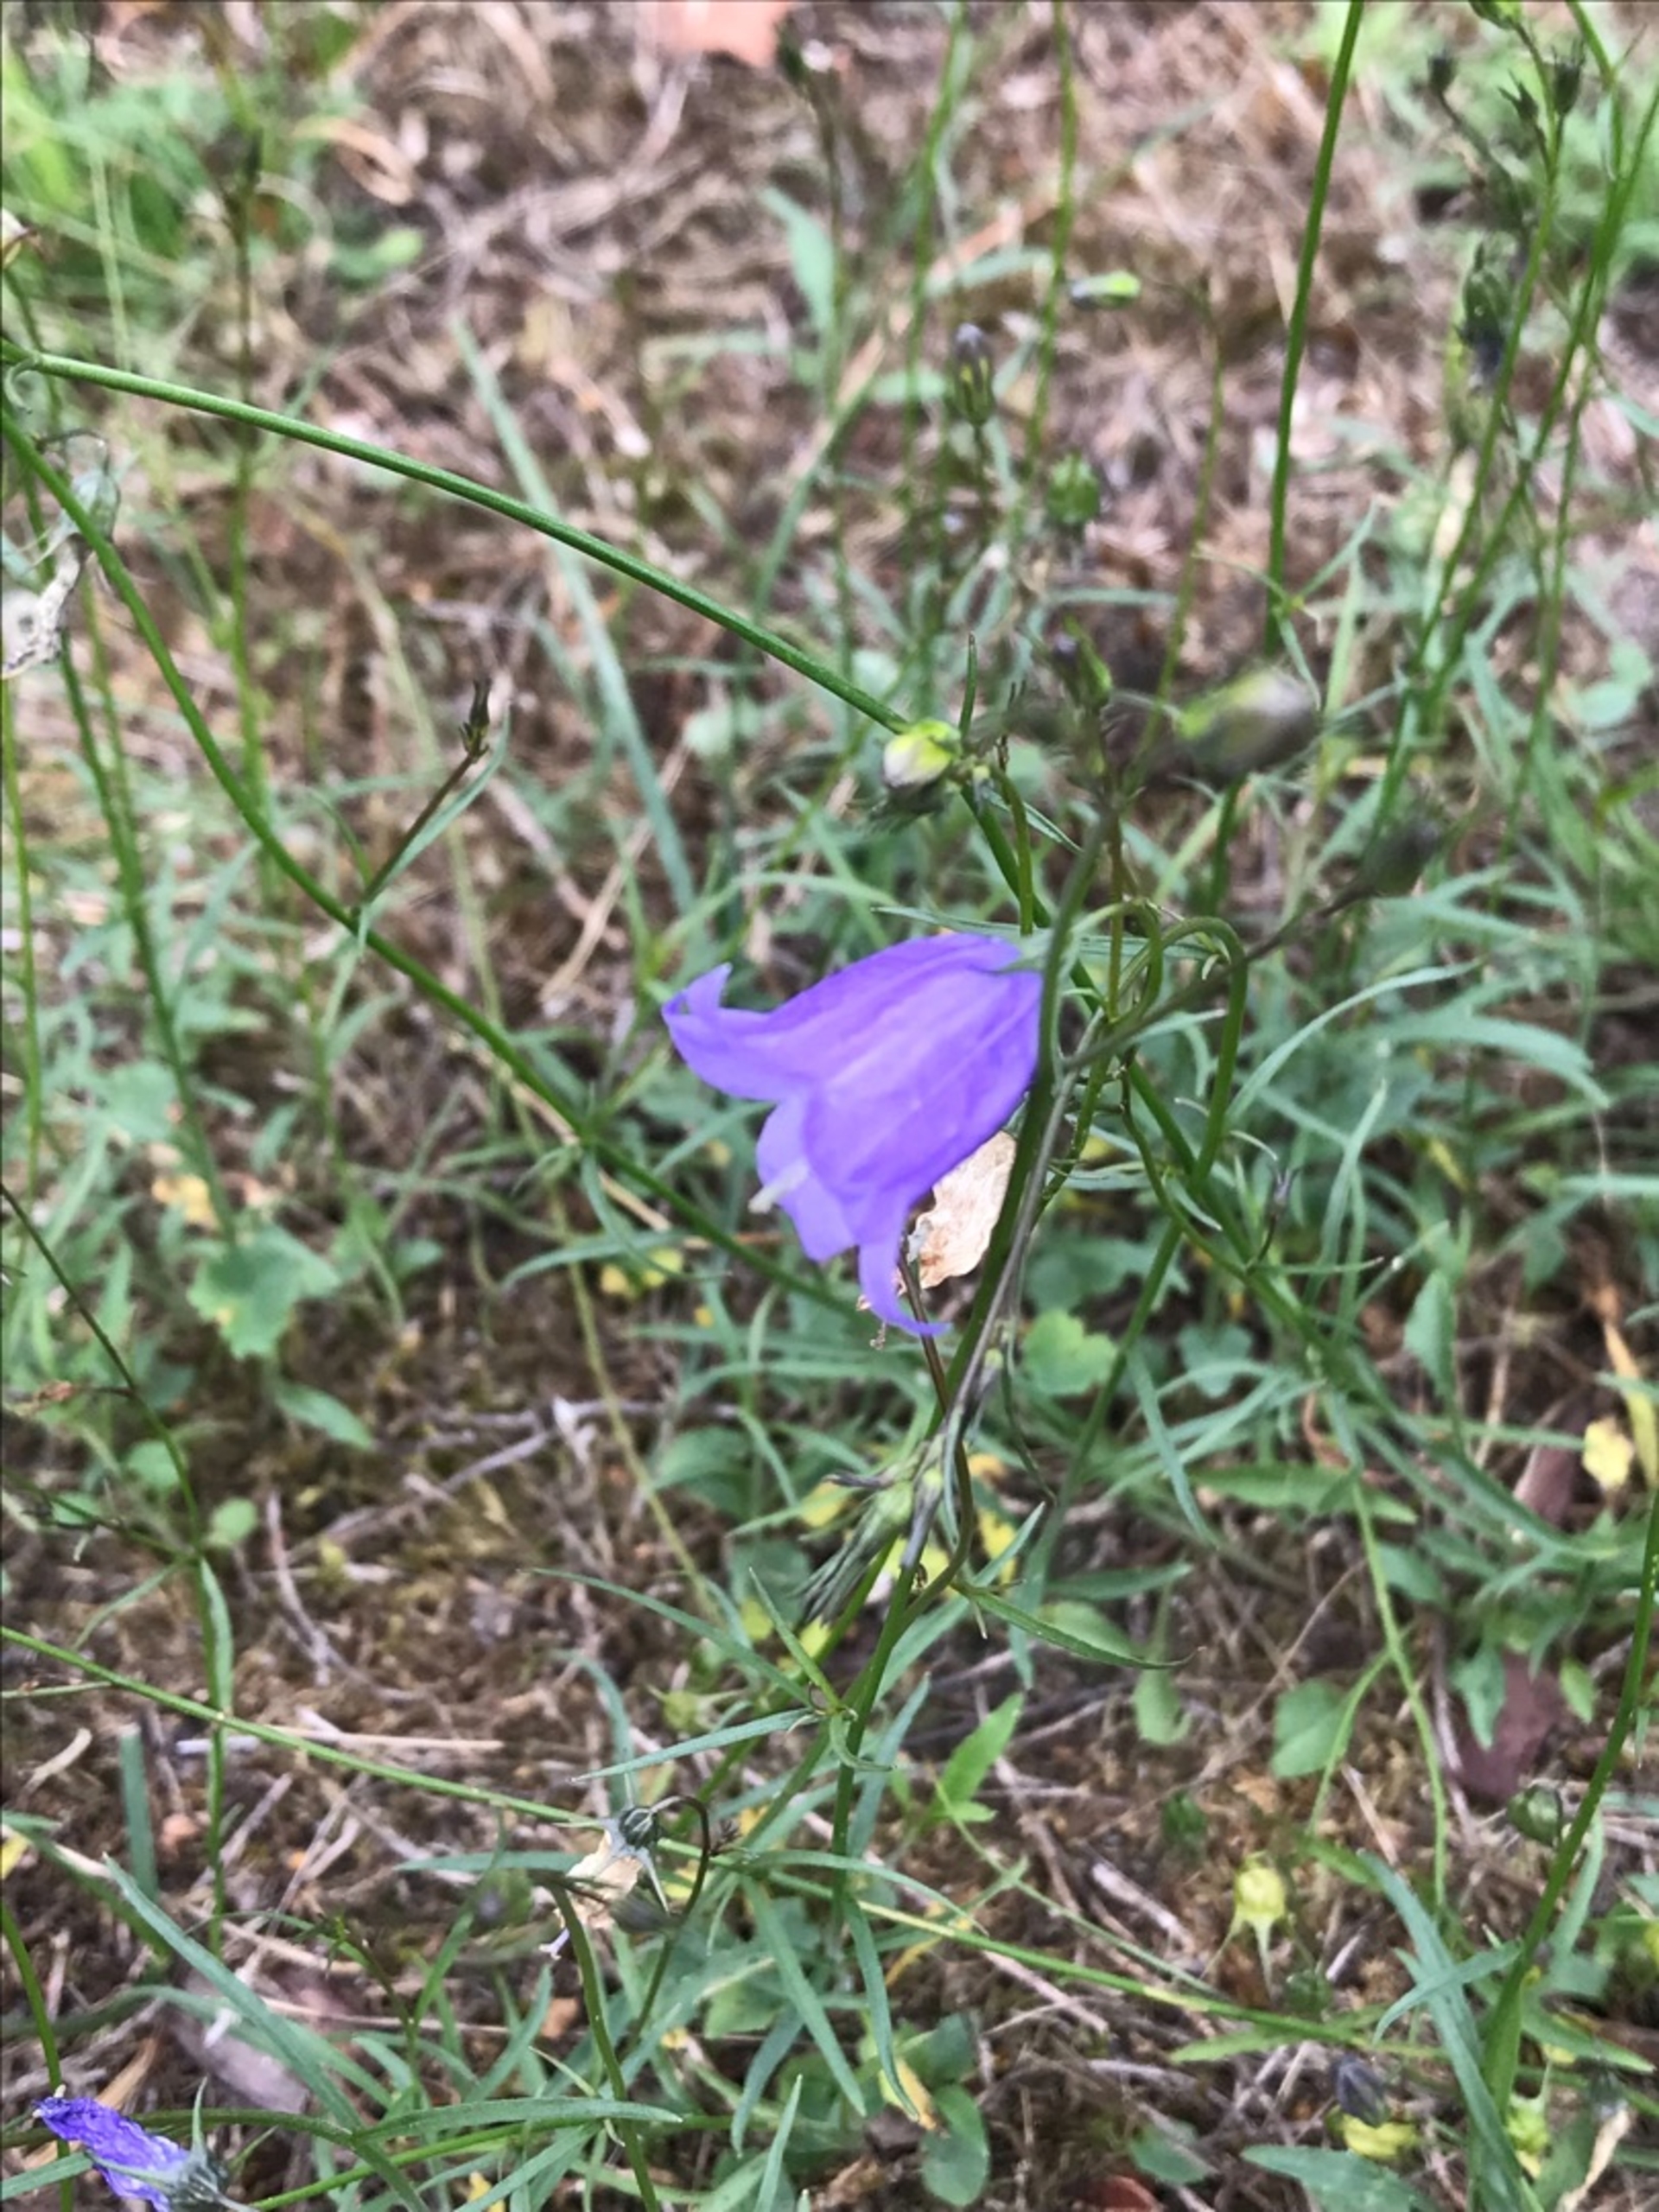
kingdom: Plantae
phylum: Tracheophyta
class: Magnoliopsida
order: Asterales
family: Campanulaceae
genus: Campanula
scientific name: Campanula rotundifolia
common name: Liden klokke
